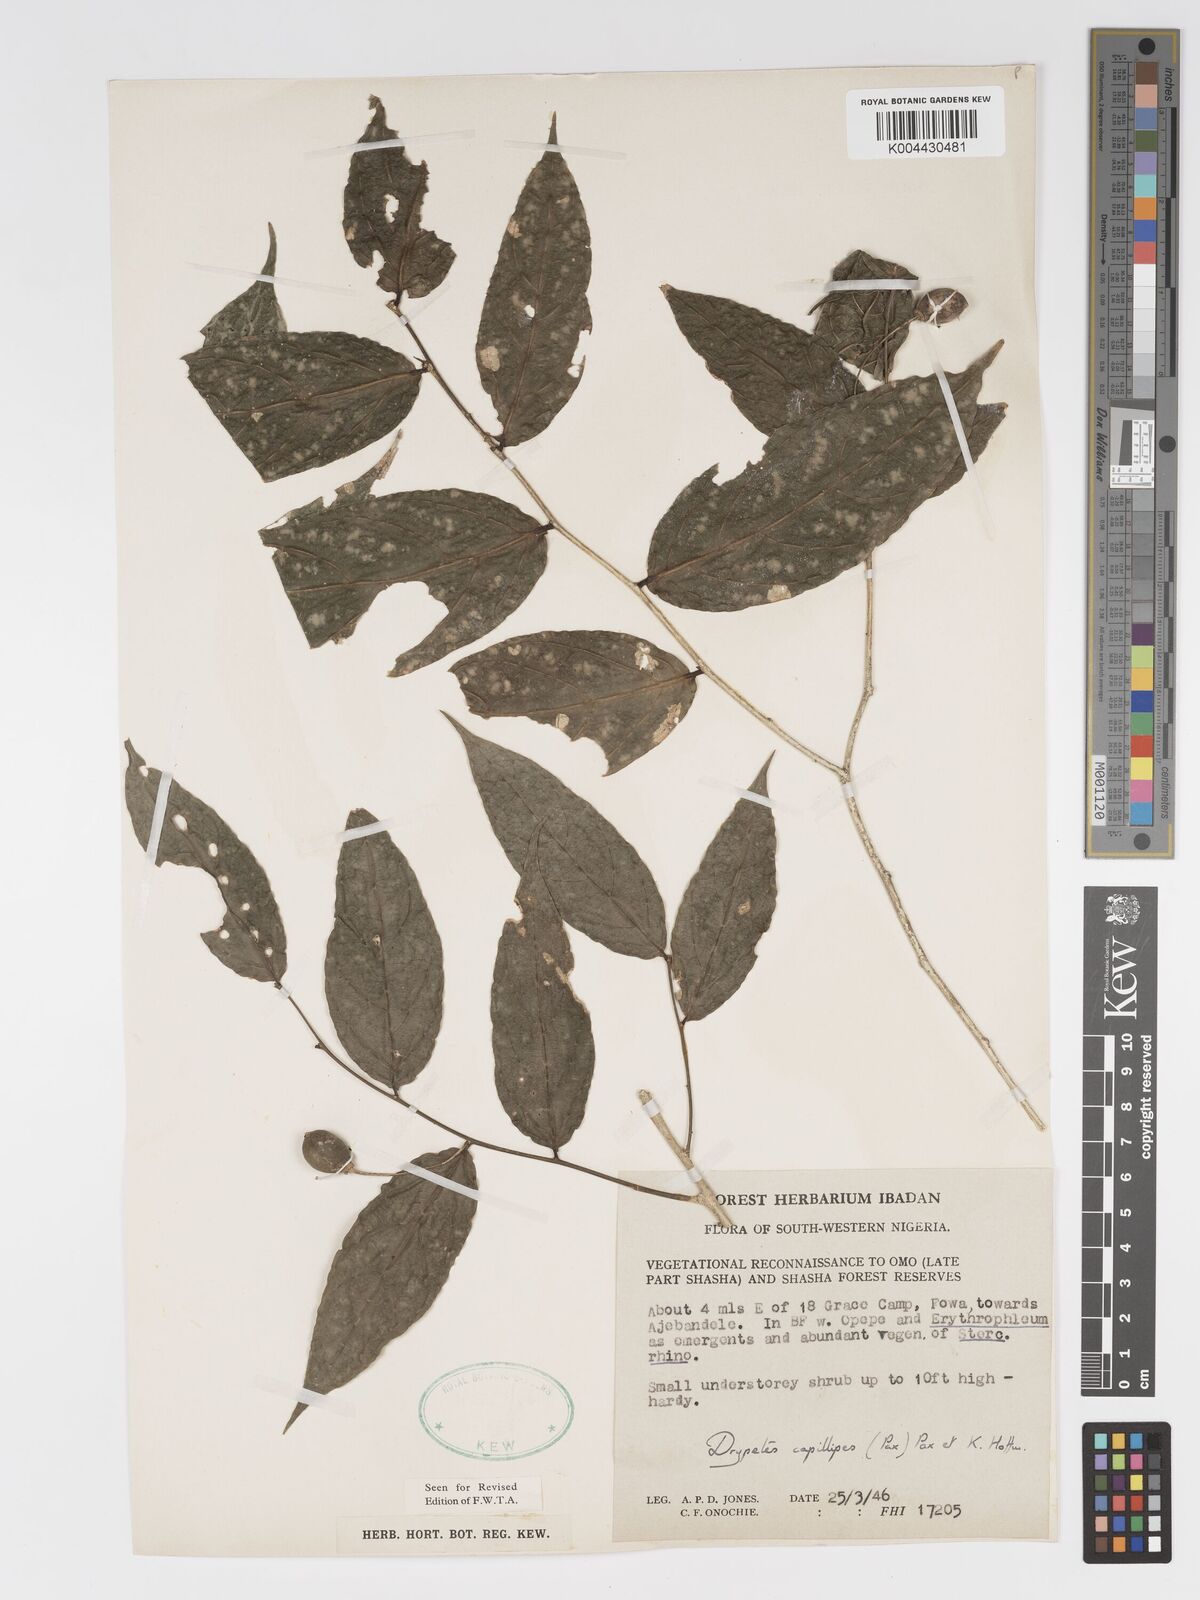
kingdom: Plantae
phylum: Tracheophyta
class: Magnoliopsida
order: Malpighiales
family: Putranjivaceae
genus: Drypetes
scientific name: Drypetes capillipes
